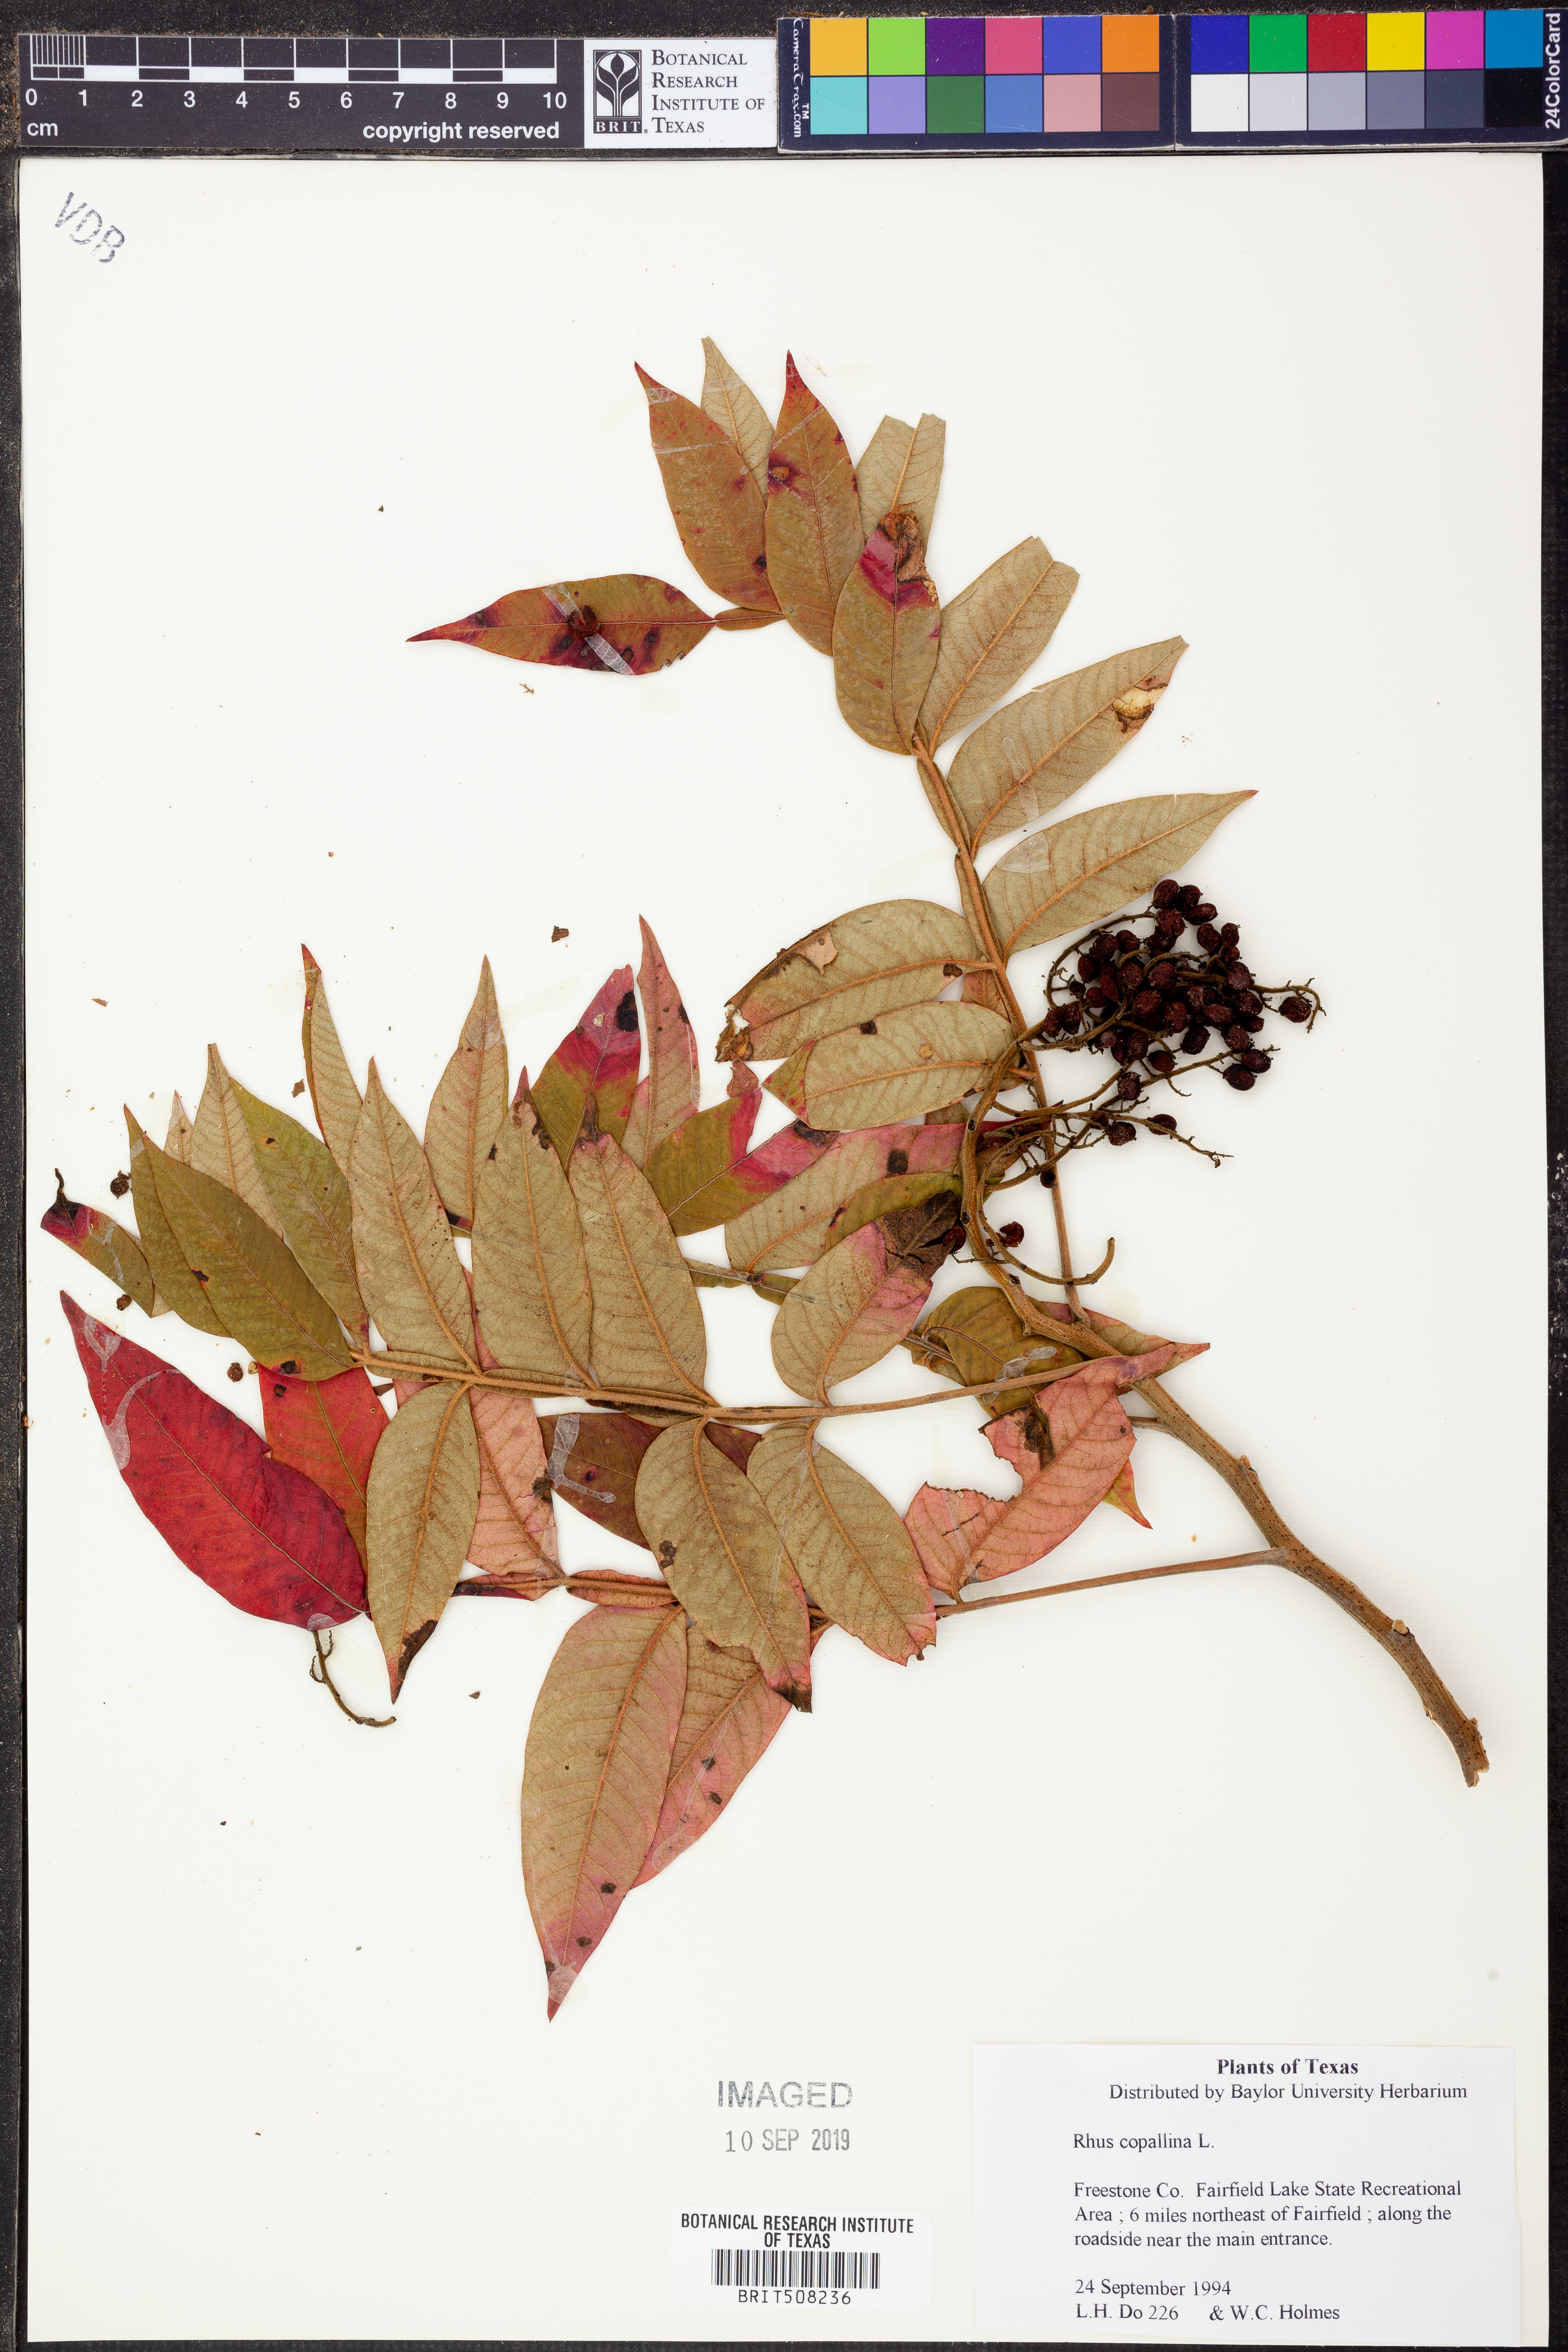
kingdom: Plantae
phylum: Tracheophyta
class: Magnoliopsida
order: Sapindales
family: Anacardiaceae
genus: Rhus
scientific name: Rhus copallina
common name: Shining sumac
